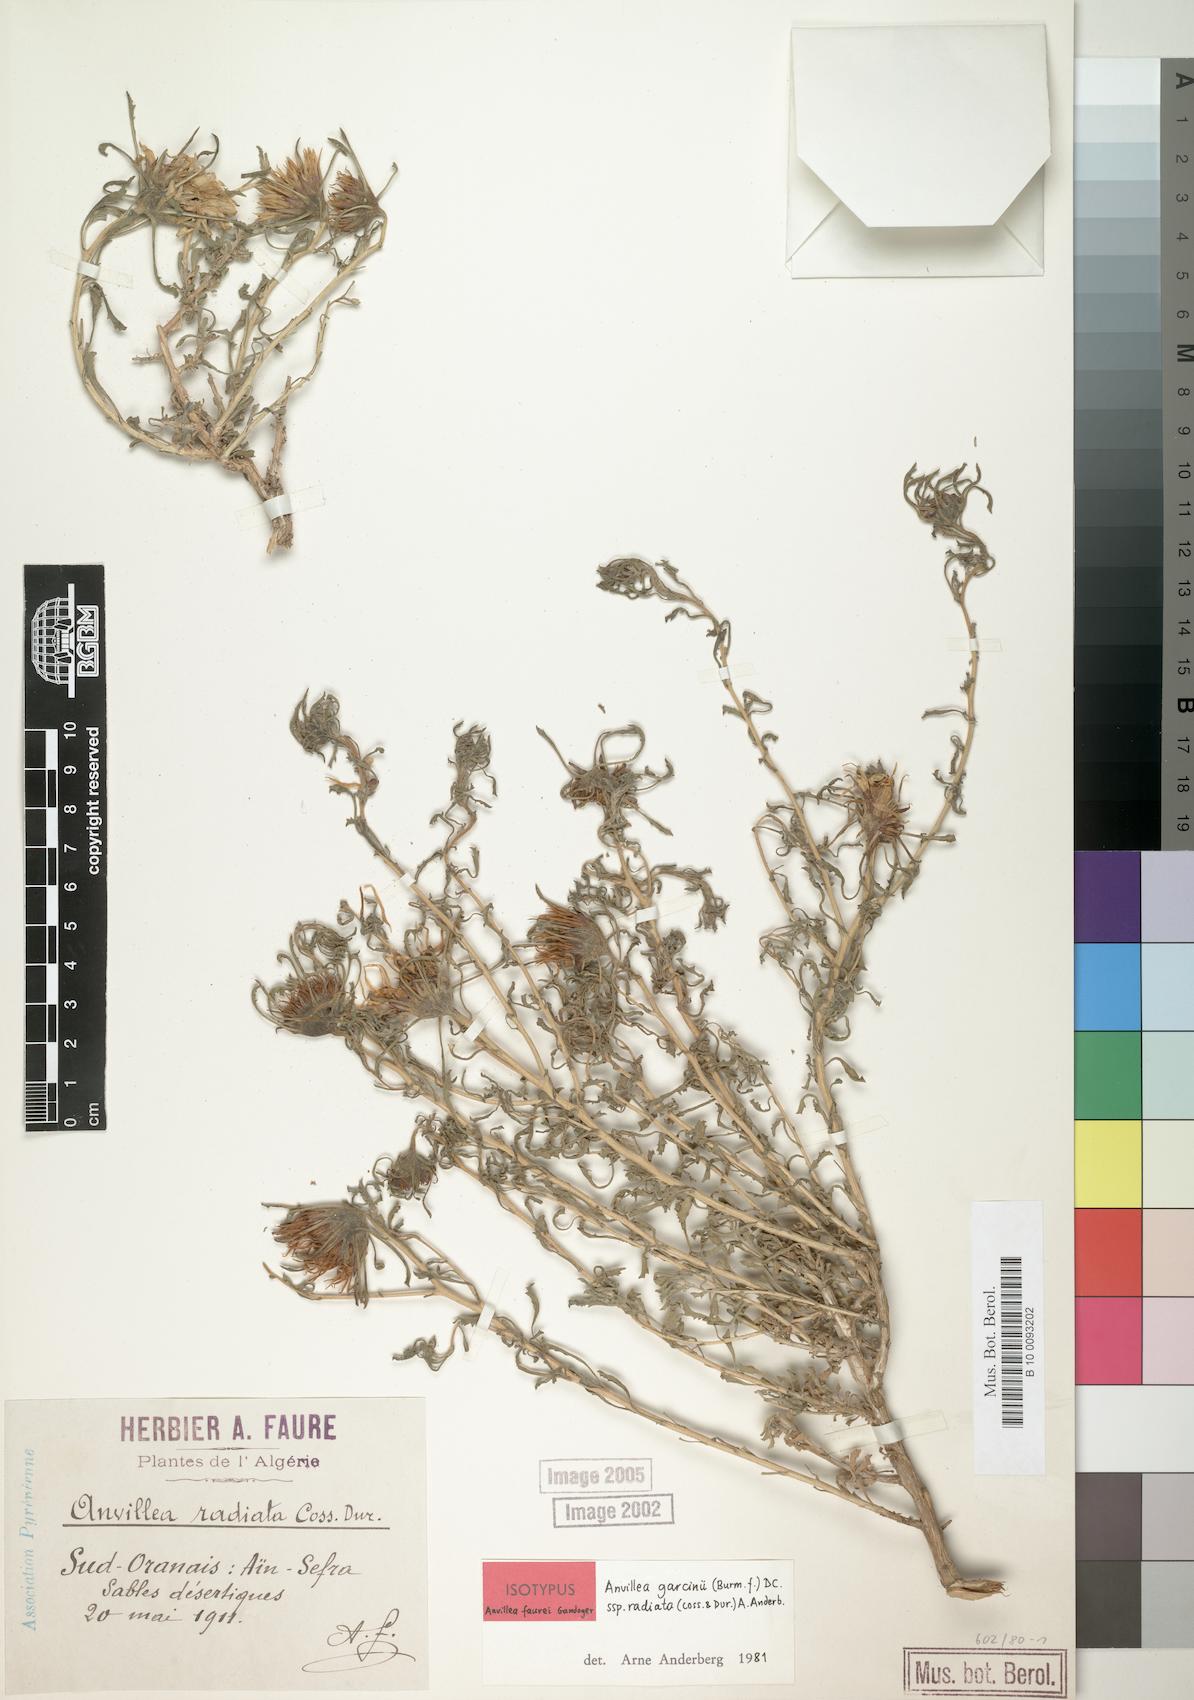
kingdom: Plantae
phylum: Tracheophyta
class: Magnoliopsida
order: Asterales
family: Asteraceae
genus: Anvillea
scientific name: Anvillea garcinii
